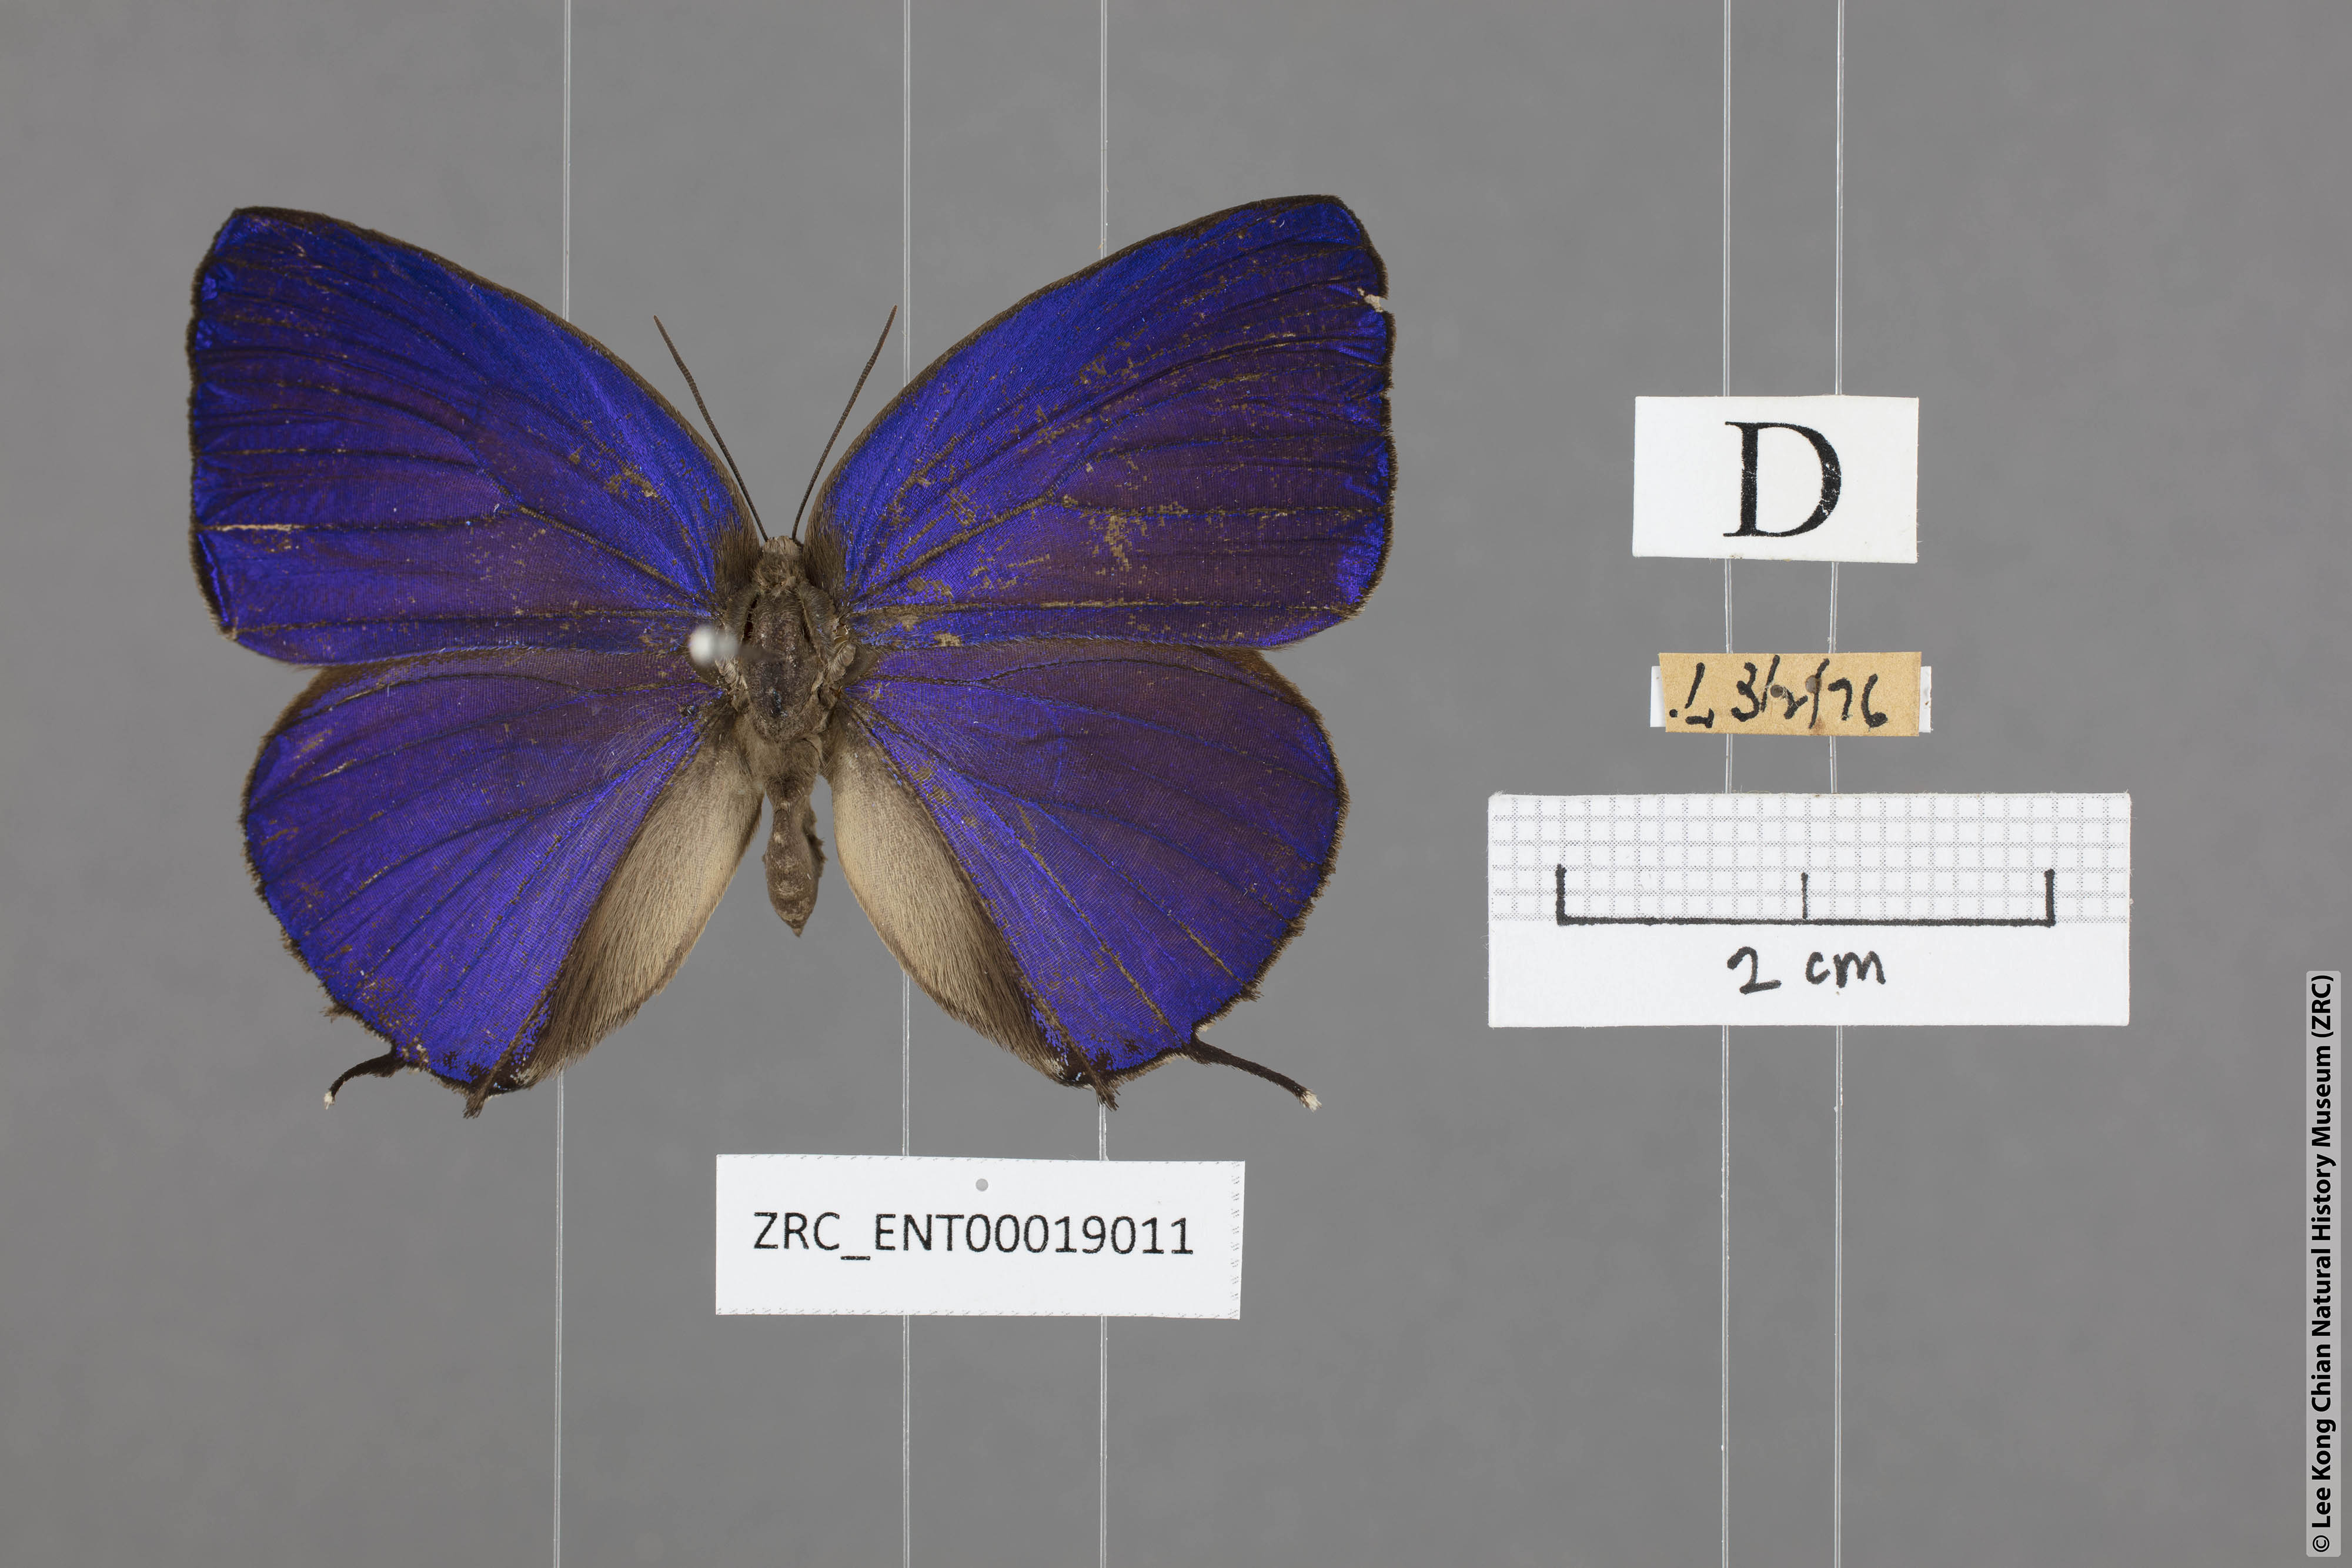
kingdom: Animalia
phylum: Arthropoda
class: Insecta
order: Lepidoptera
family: Lycaenidae
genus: Arhopala
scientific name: Arhopala aedias
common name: Large metallic oakblue
